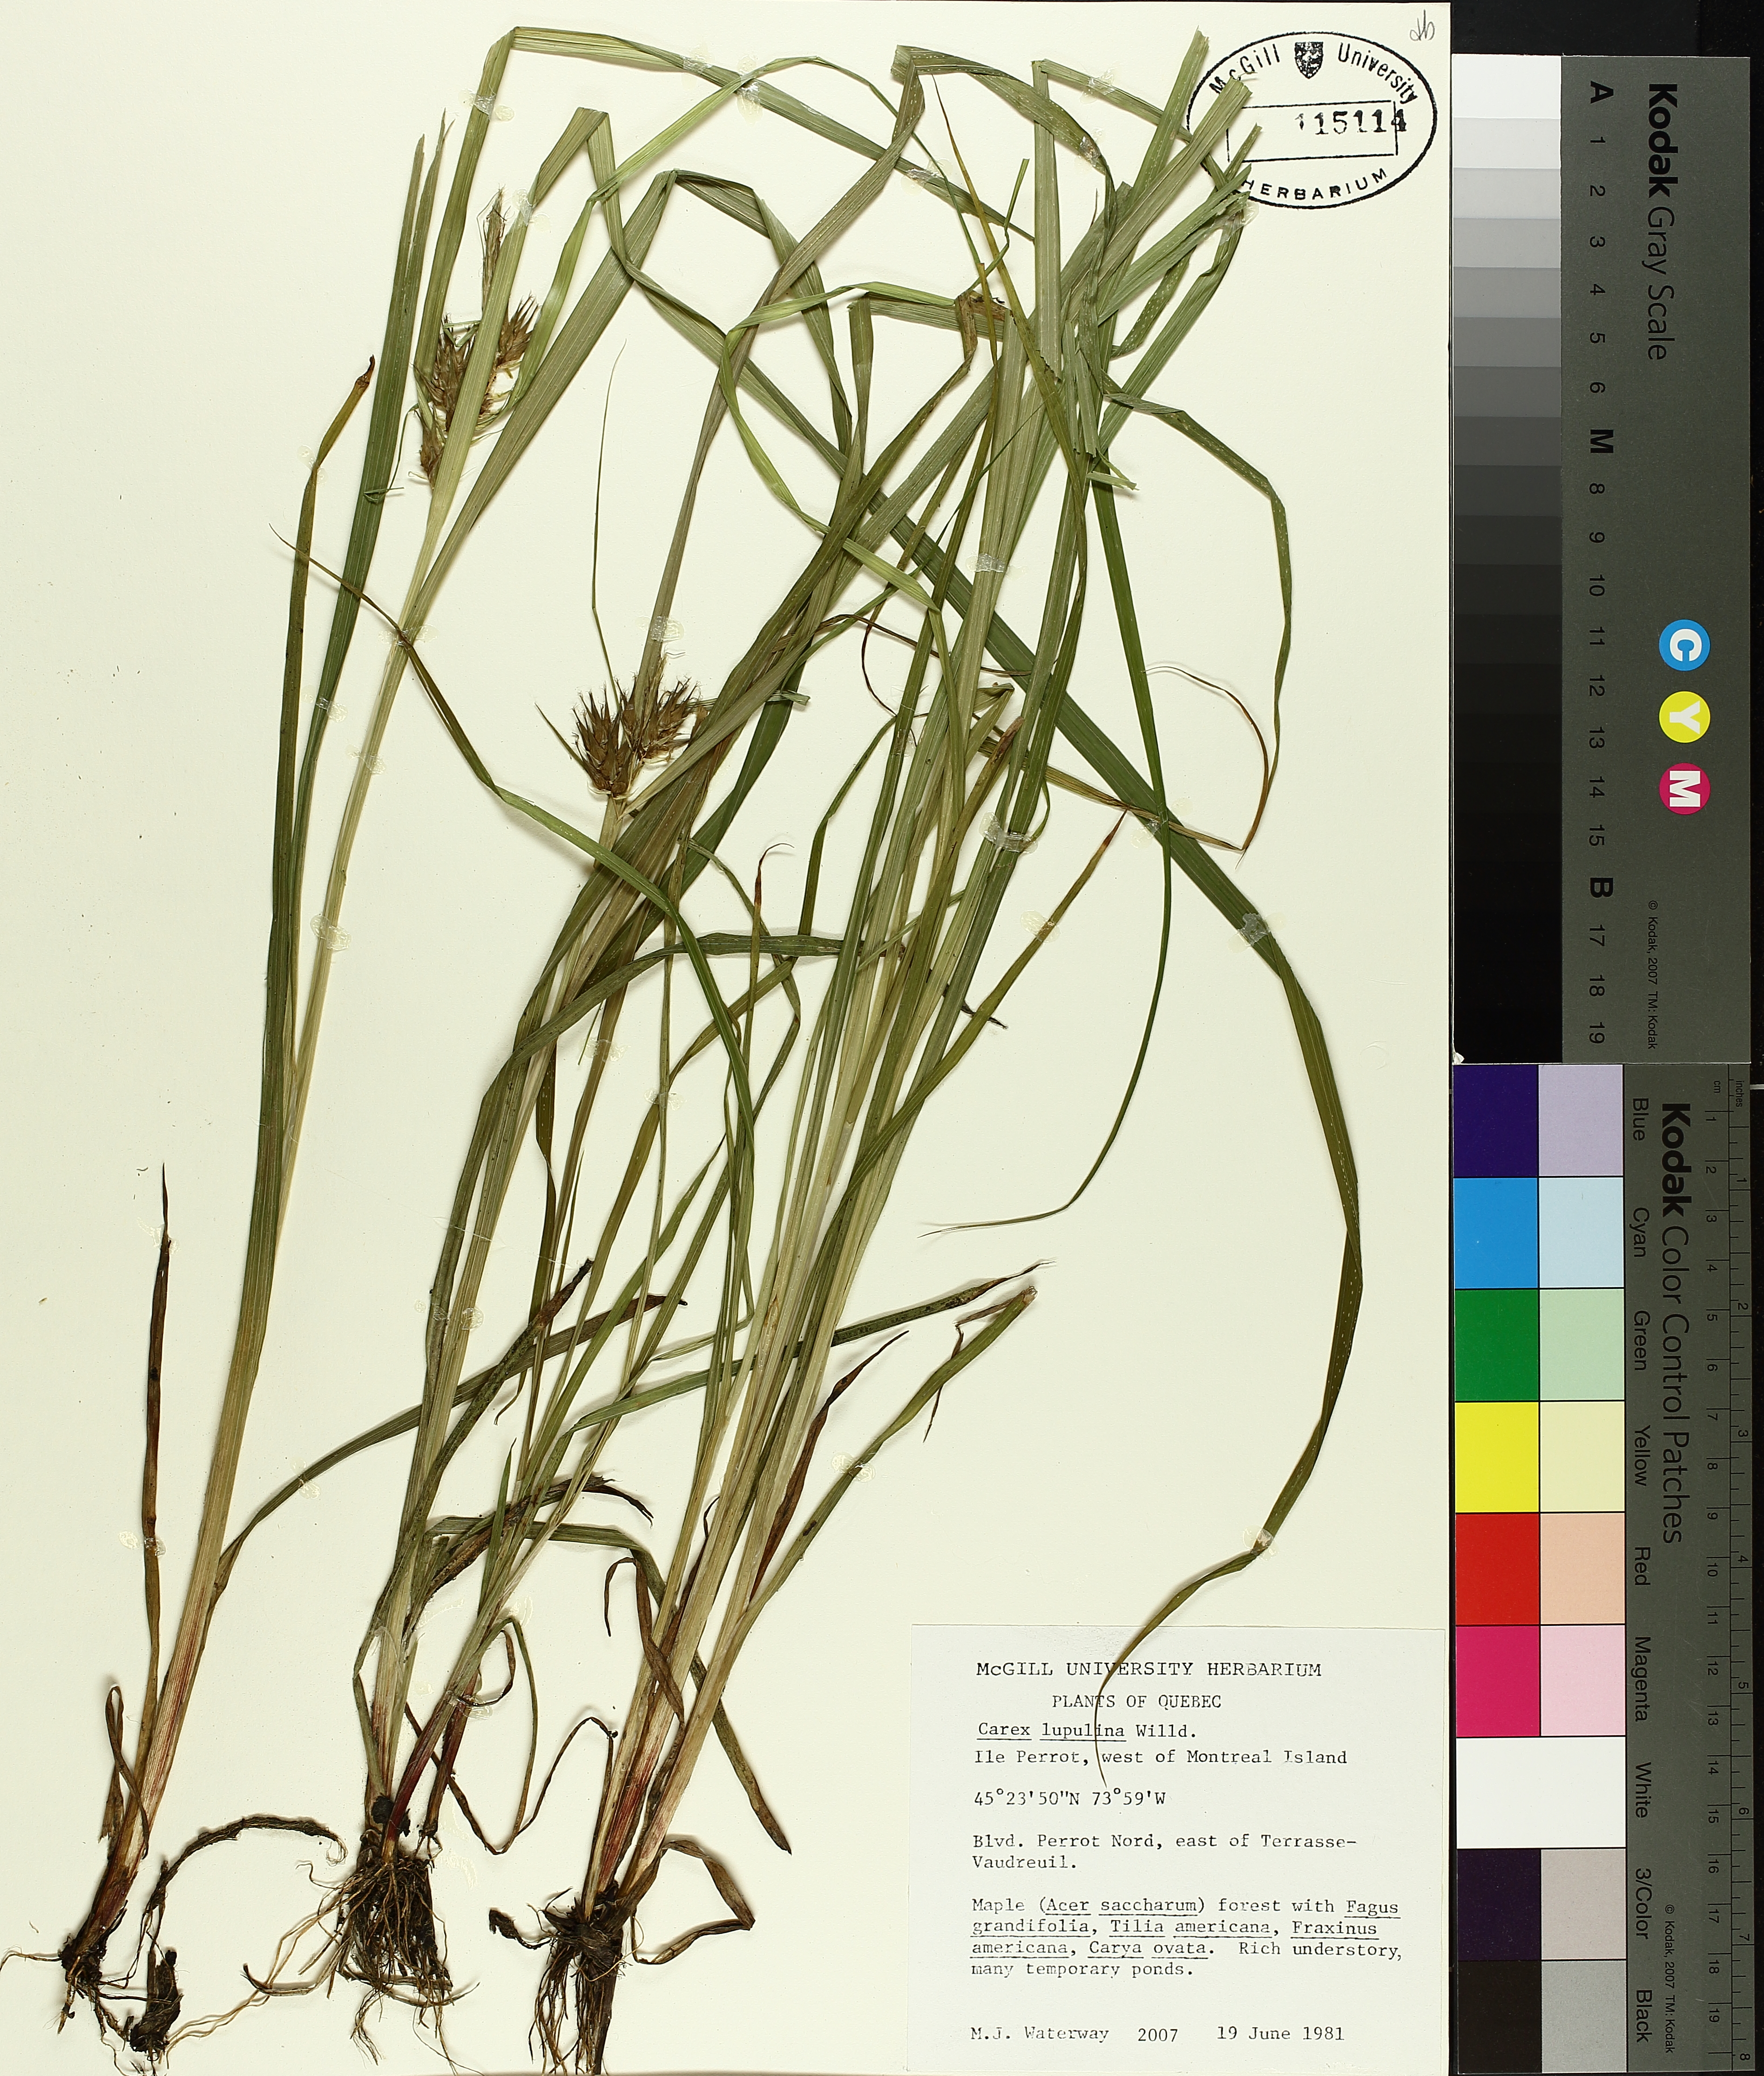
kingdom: Plantae
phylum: Tracheophyta
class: Liliopsida
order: Poales
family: Cyperaceae
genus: Carex
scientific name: Carex lupulina
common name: Hop sedge
